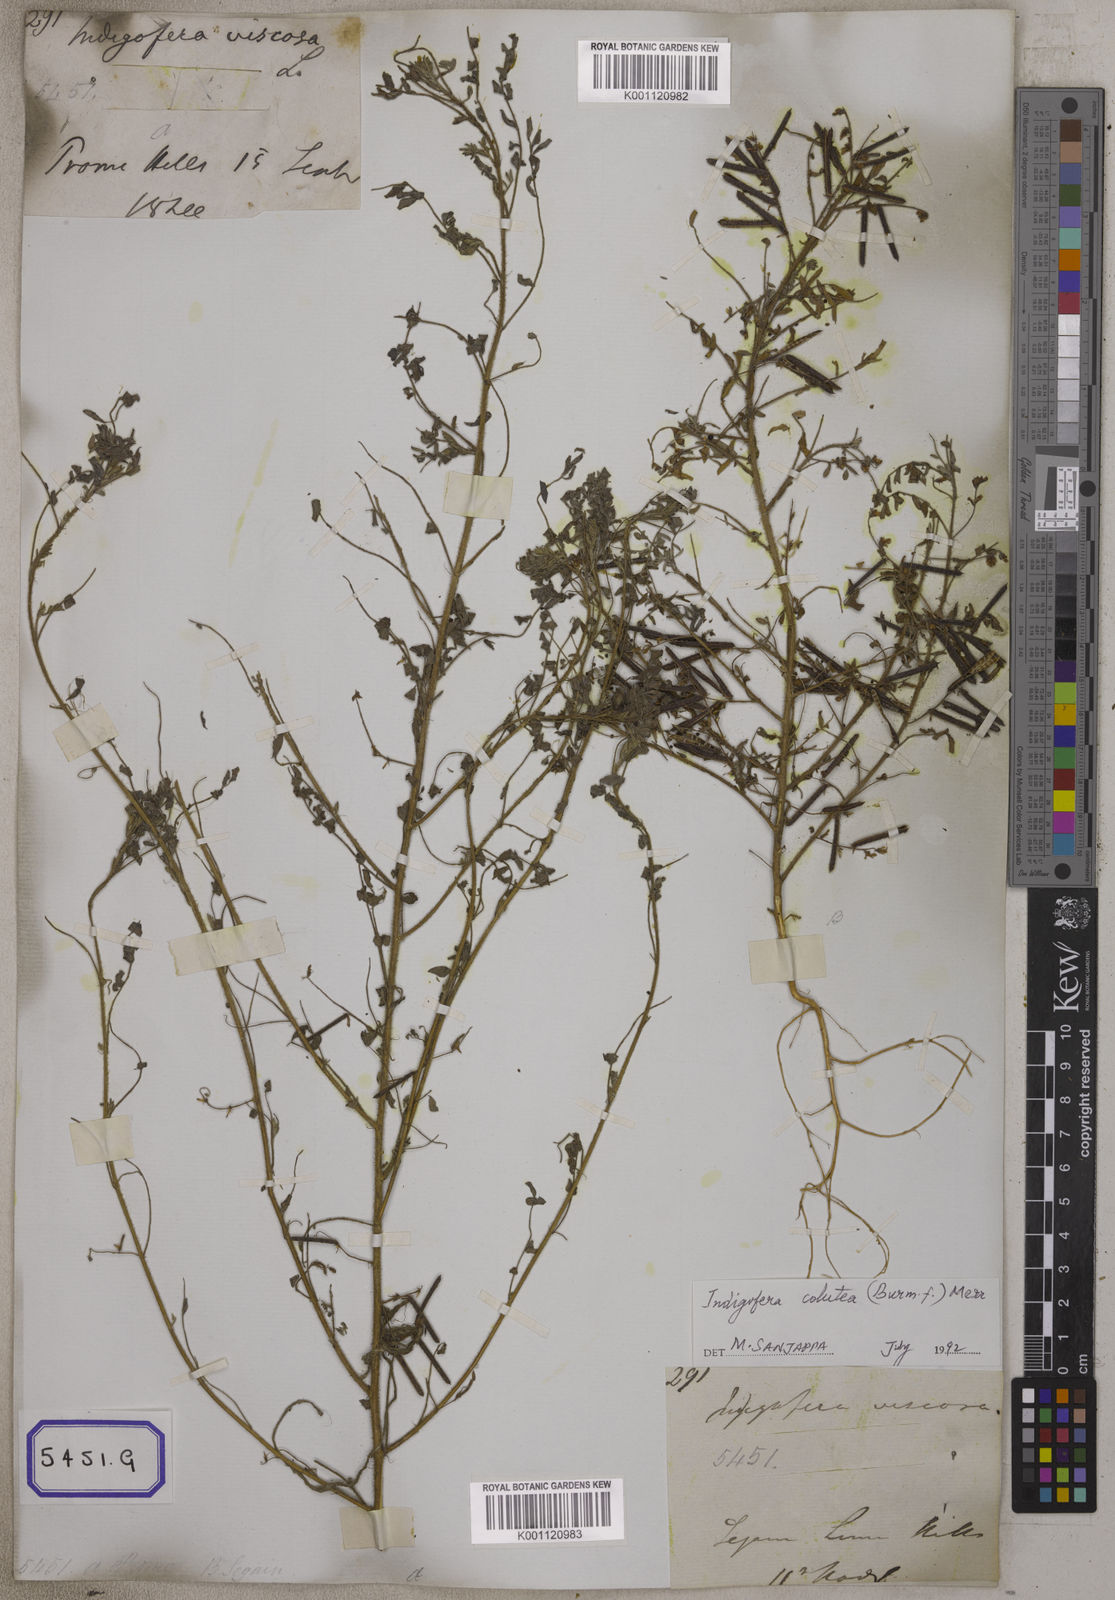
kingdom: Plantae
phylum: Tracheophyta
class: Magnoliopsida
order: Fabales
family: Fabaceae
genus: Indigofera
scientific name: Indigofera colutea
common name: Rusty indigo
